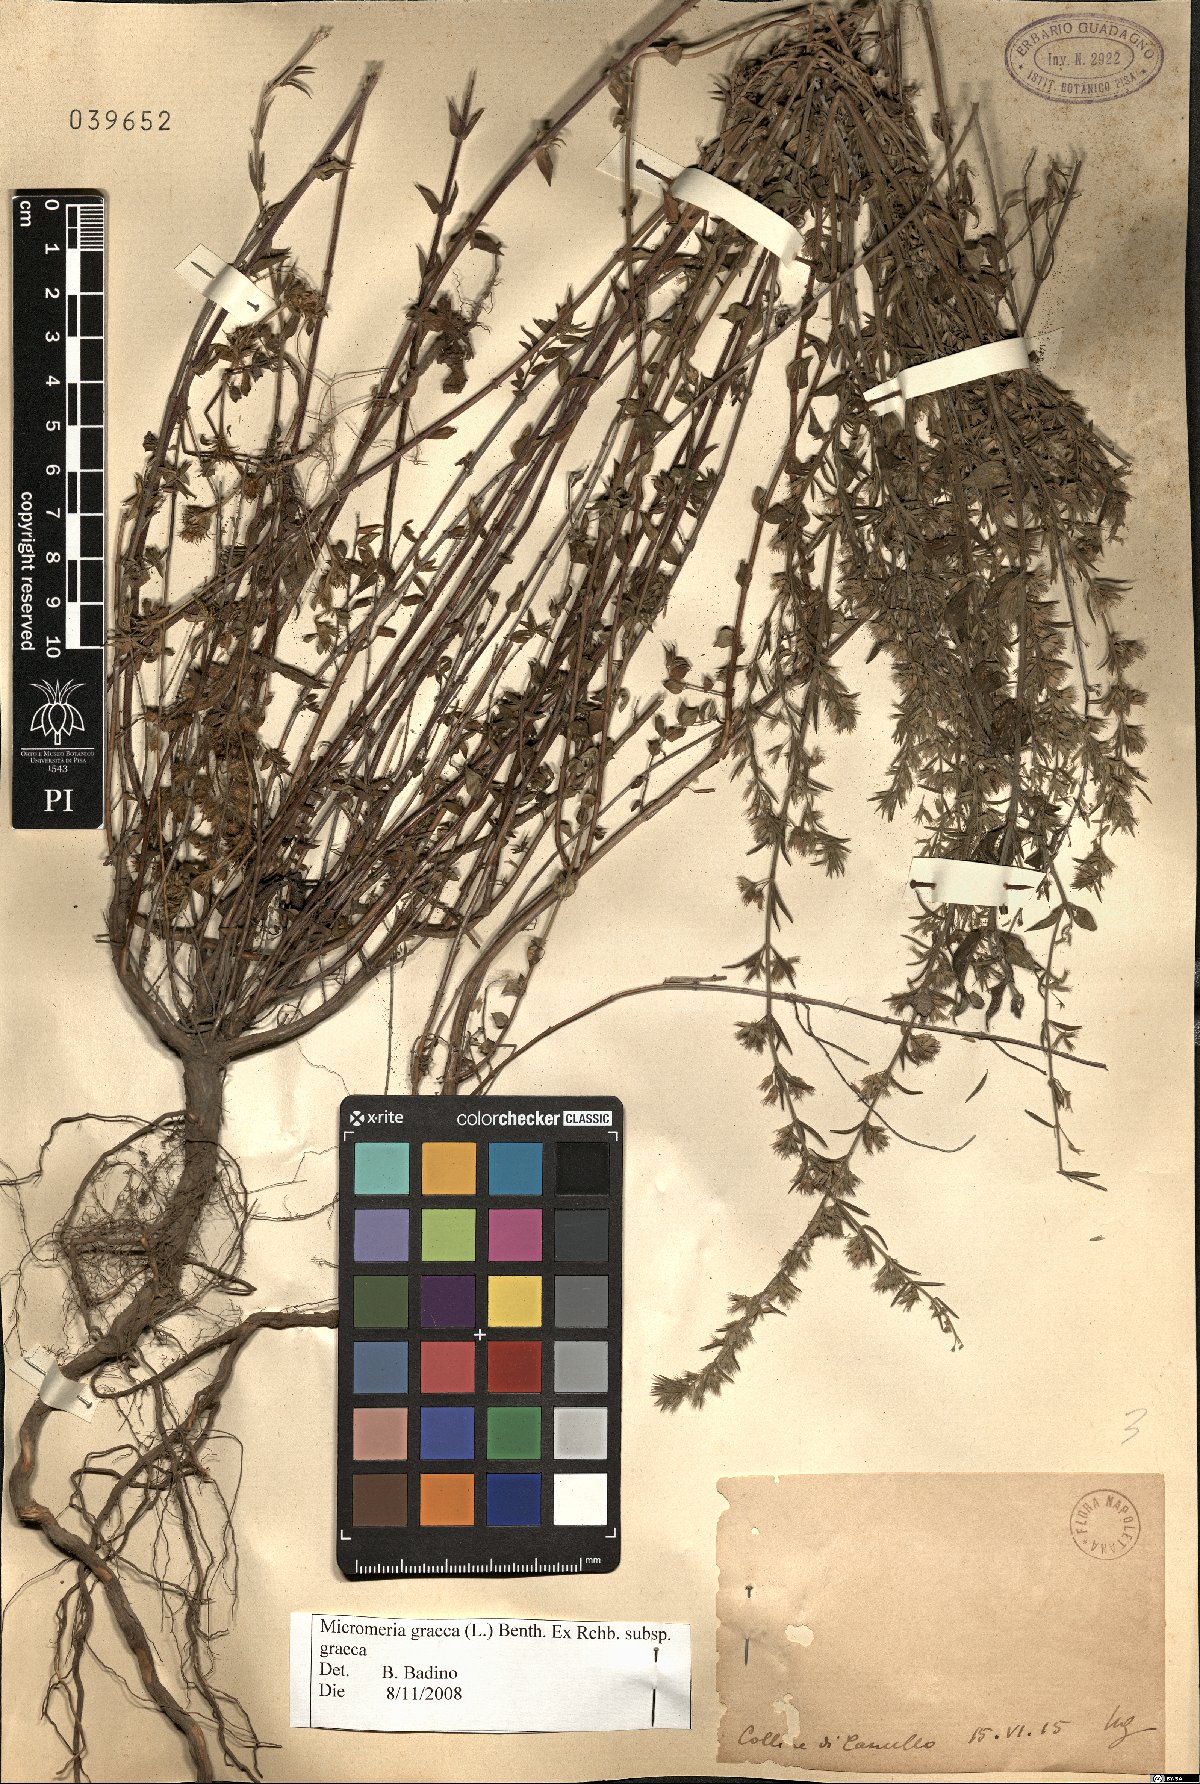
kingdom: Plantae
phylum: Tracheophyta
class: Magnoliopsida
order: Lamiales
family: Lamiaceae
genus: Micromeria
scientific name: Micromeria graeca
